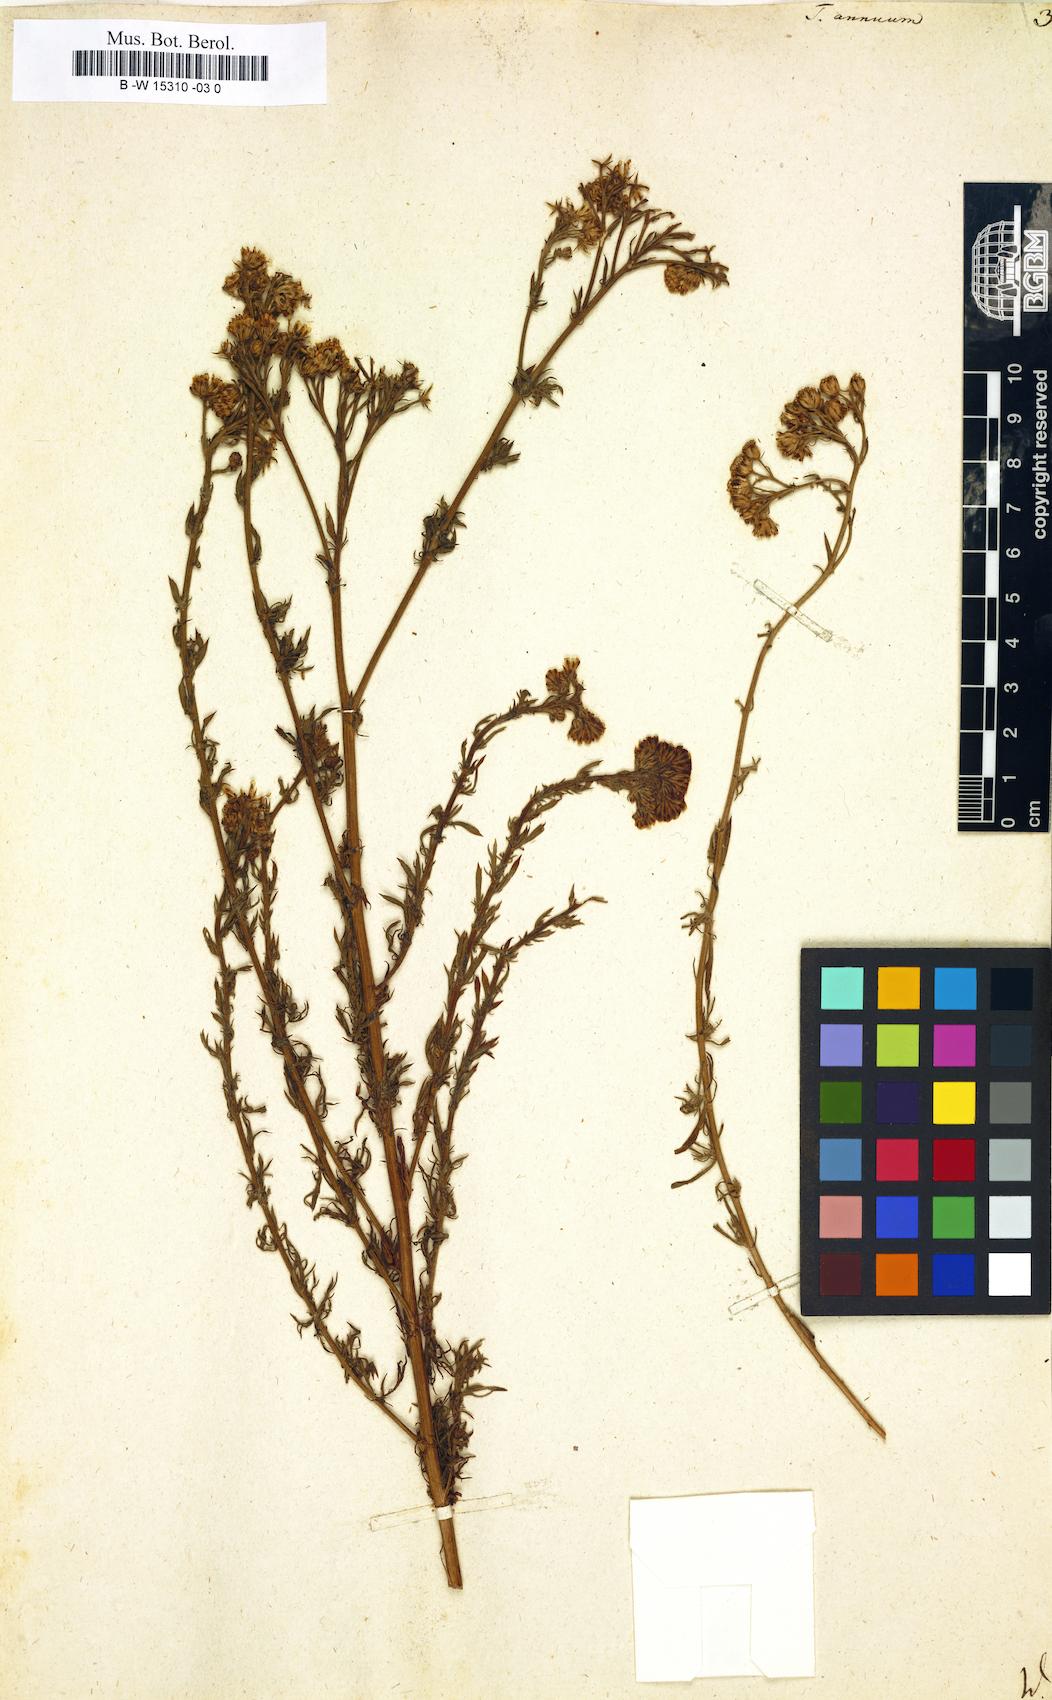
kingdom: Plantae
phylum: Tracheophyta
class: Magnoliopsida
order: Asterales
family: Asteraceae
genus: Vogtia
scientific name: Vogtia annua
